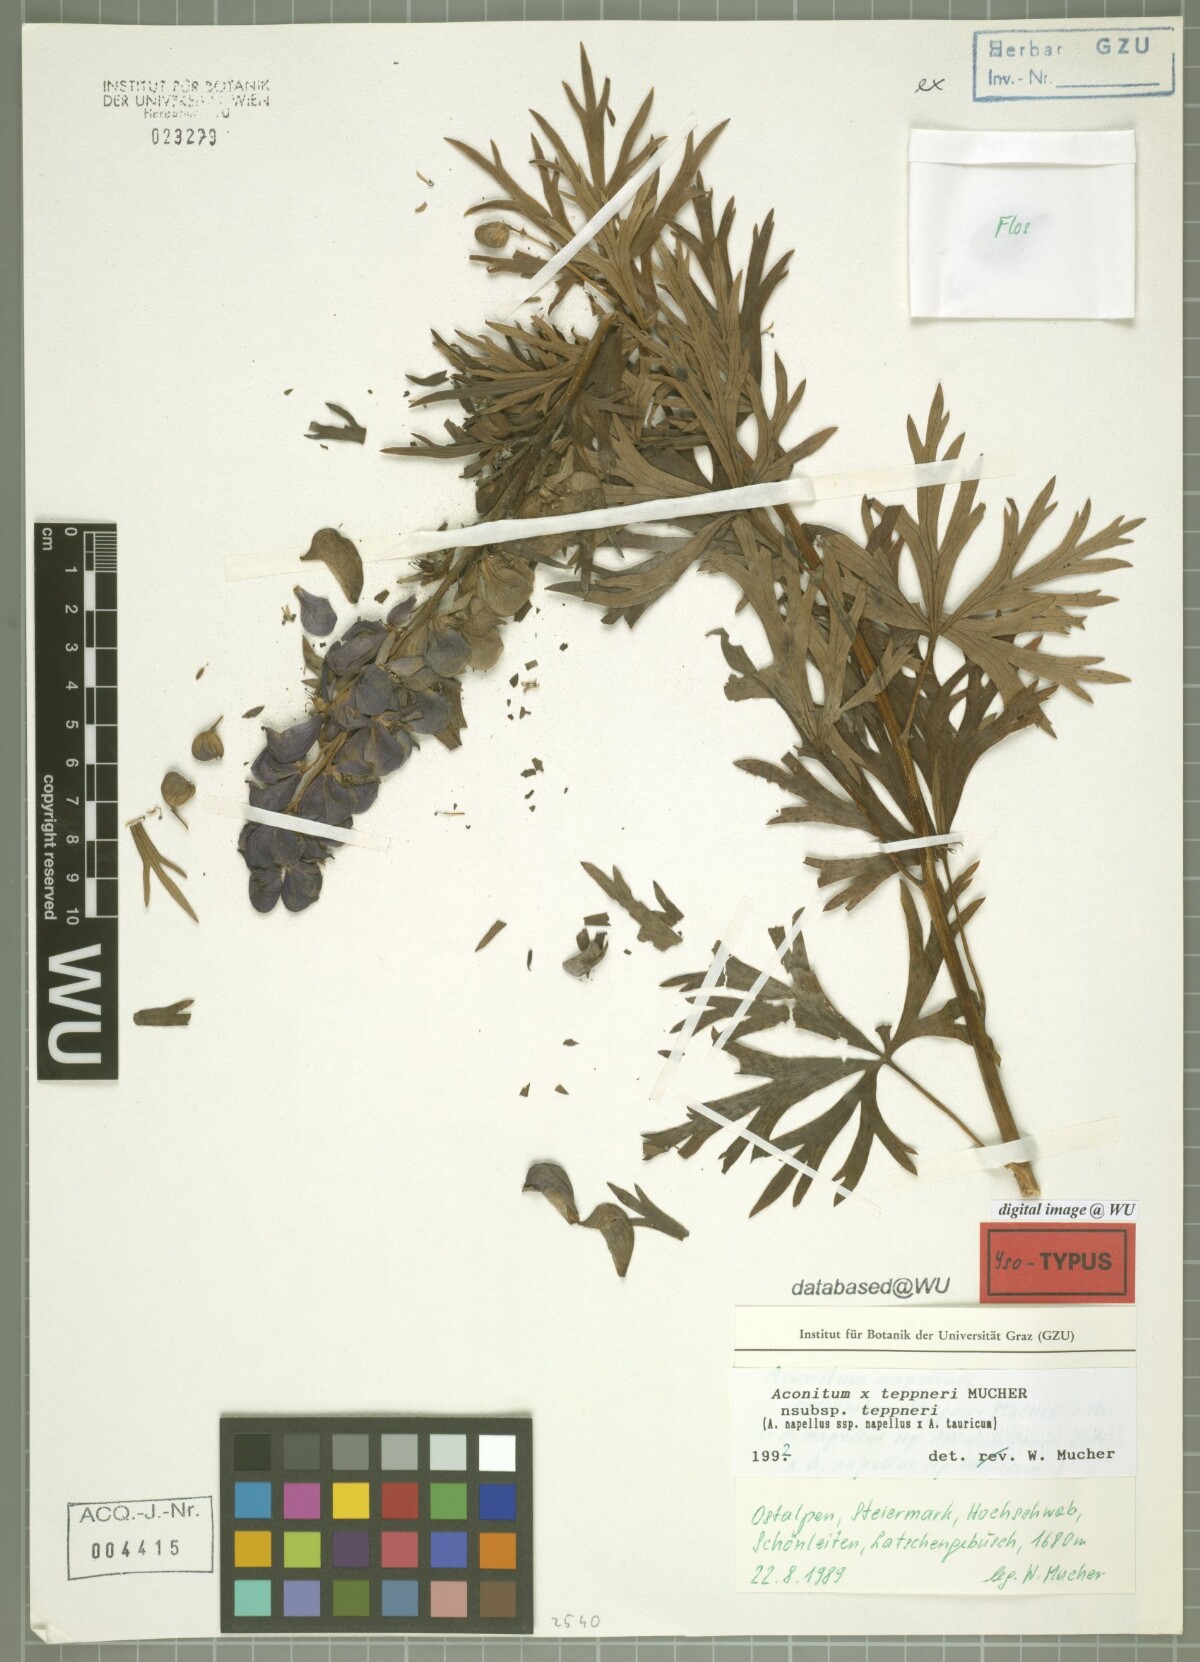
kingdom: Plantae
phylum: Tracheophyta
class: Magnoliopsida
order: Ranunculales
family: Ranunculaceae
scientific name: Ranunculaceae
